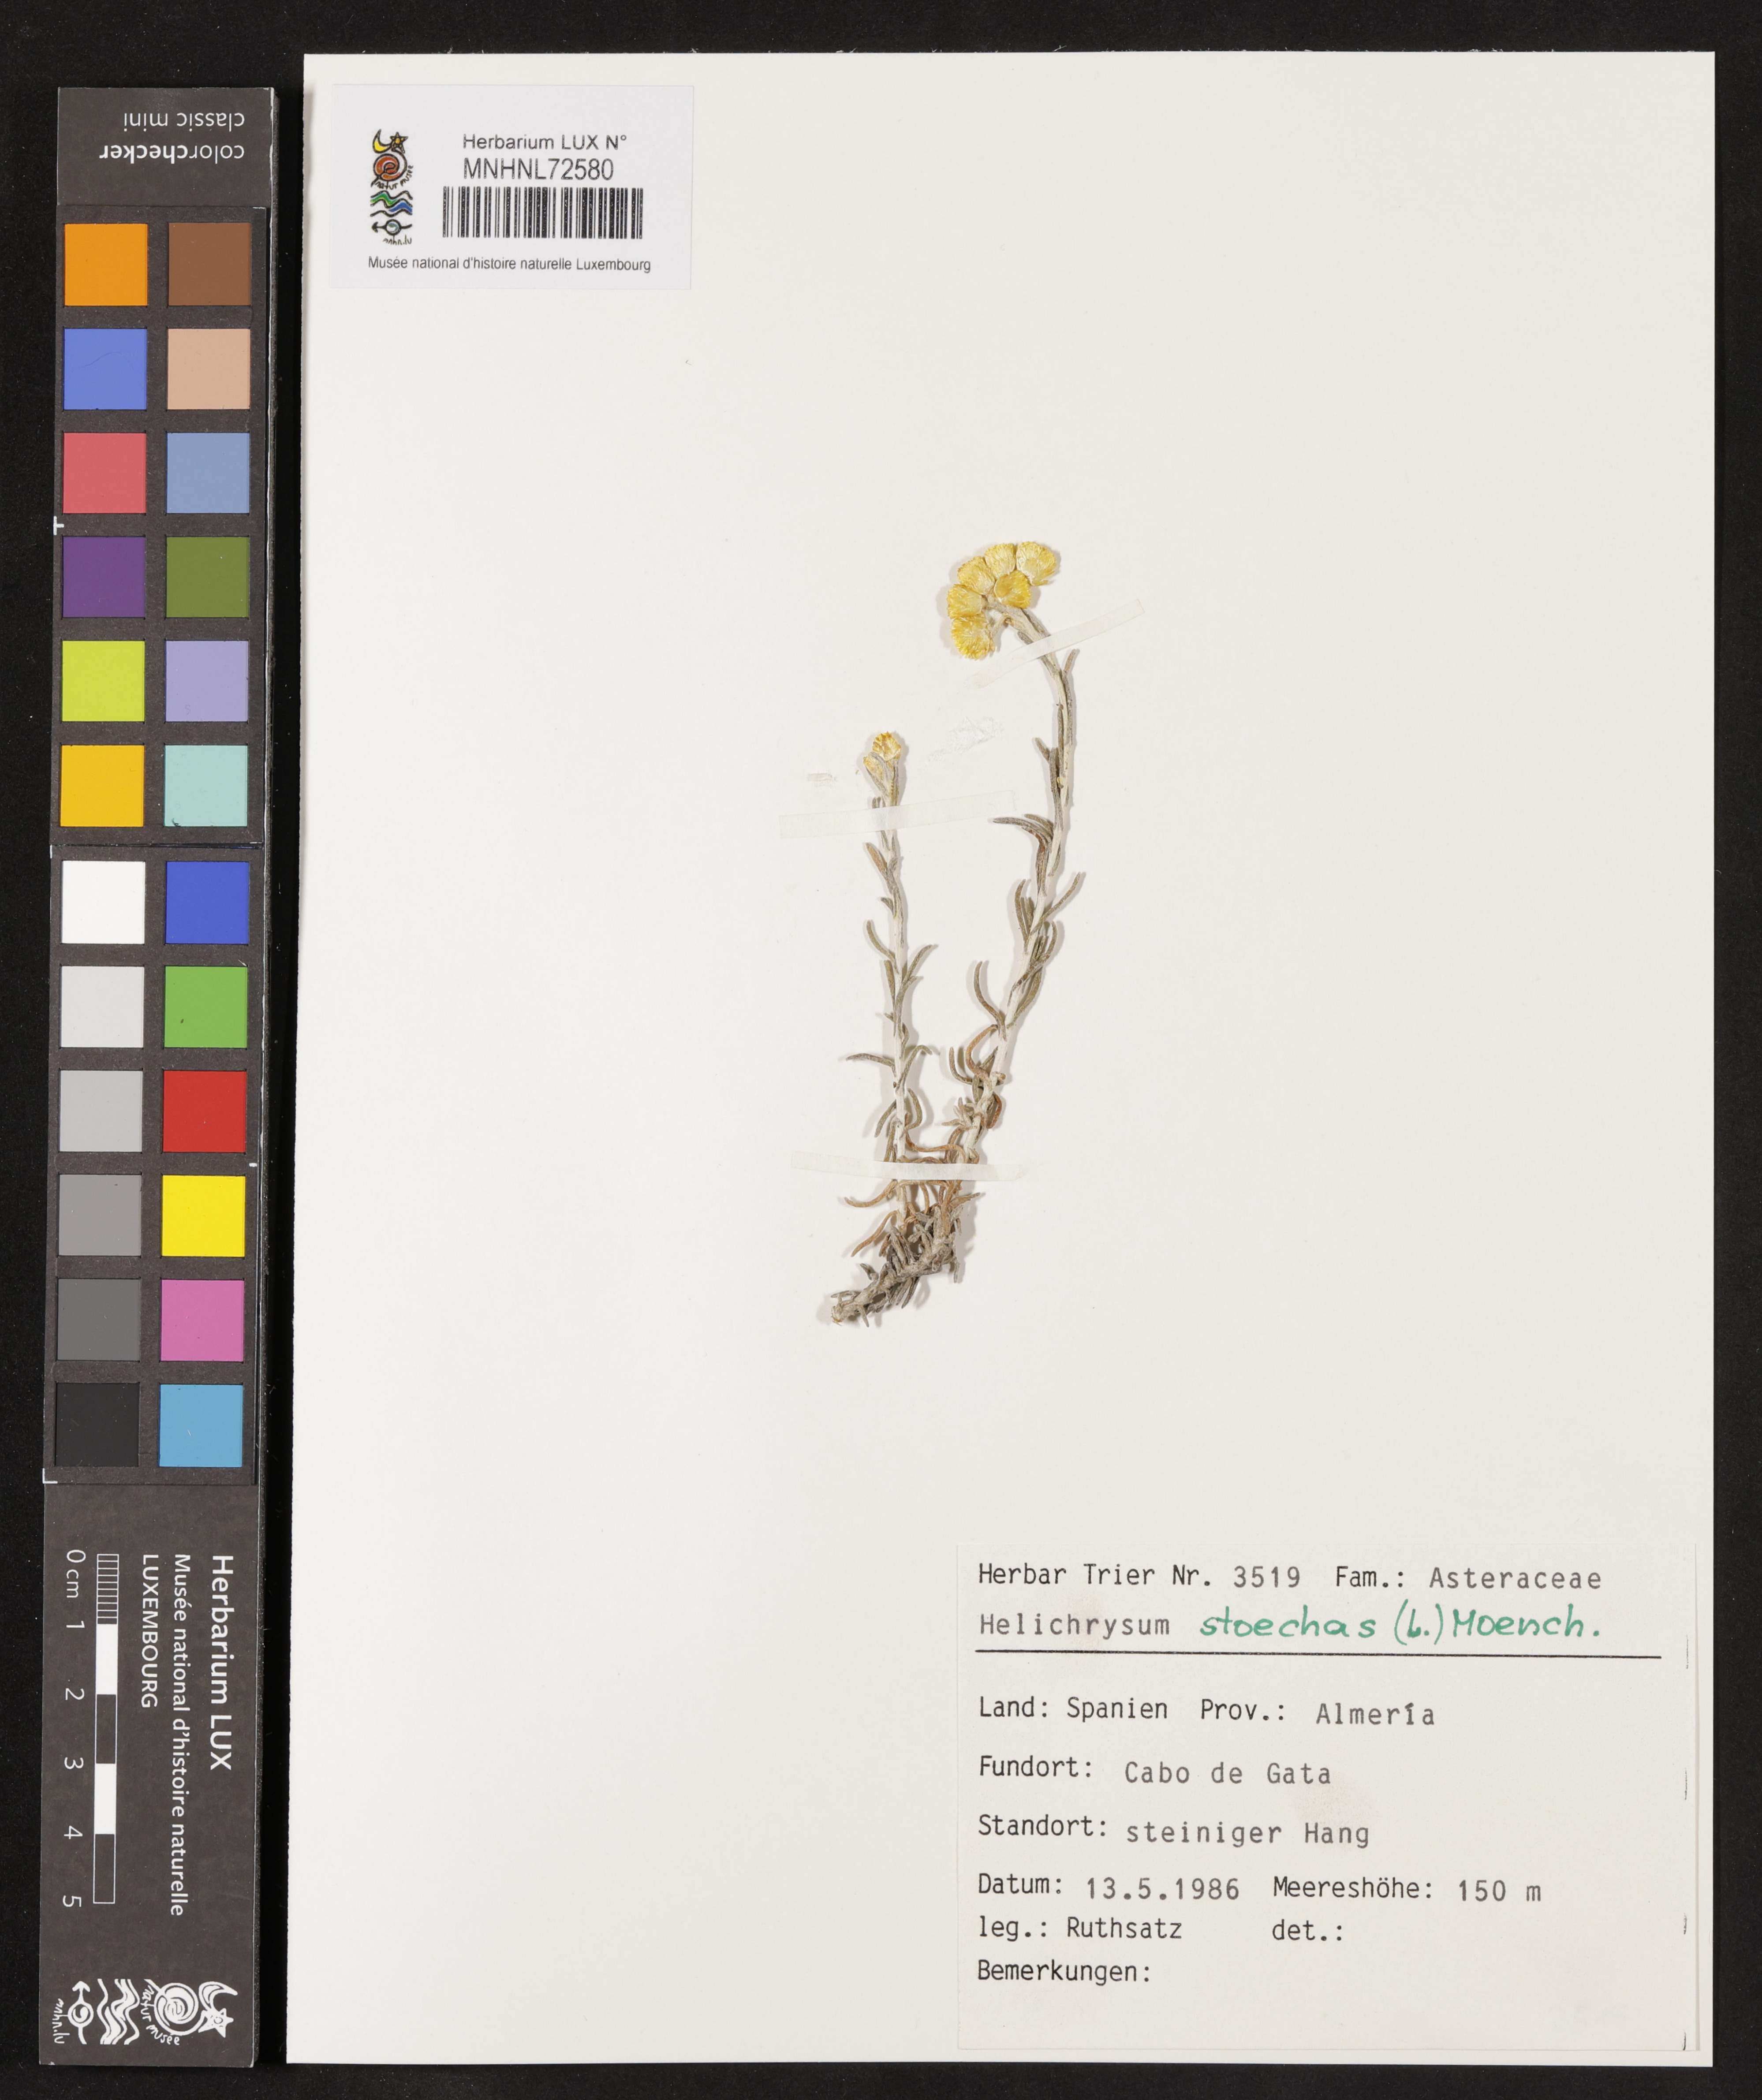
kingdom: Plantae
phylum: Tracheophyta
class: Magnoliopsida
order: Asterales
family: Asteraceae
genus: Helichrysum
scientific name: Helichrysum stoechas
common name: Goldilocks
